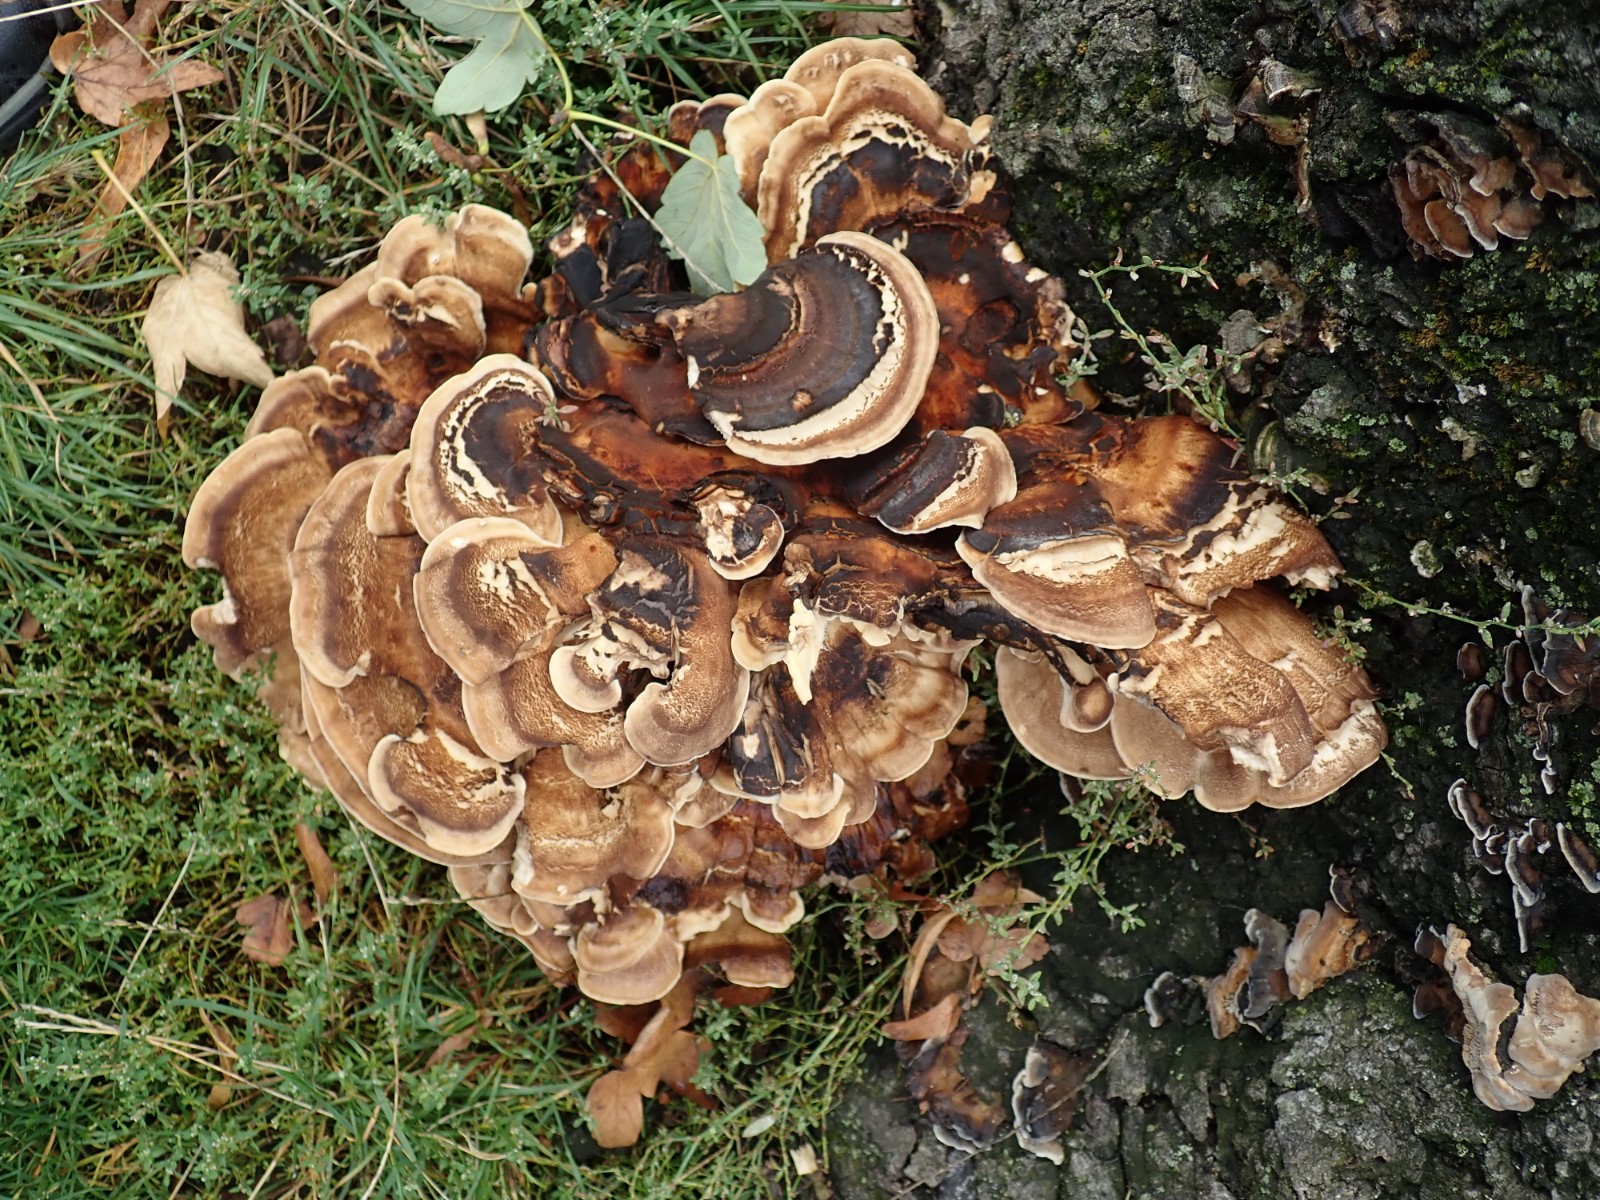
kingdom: Fungi
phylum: Basidiomycota
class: Agaricomycetes
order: Polyporales
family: Meripilaceae
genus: Meripilus
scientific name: Meripilus giganteus
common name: kæmpeporesvamp
